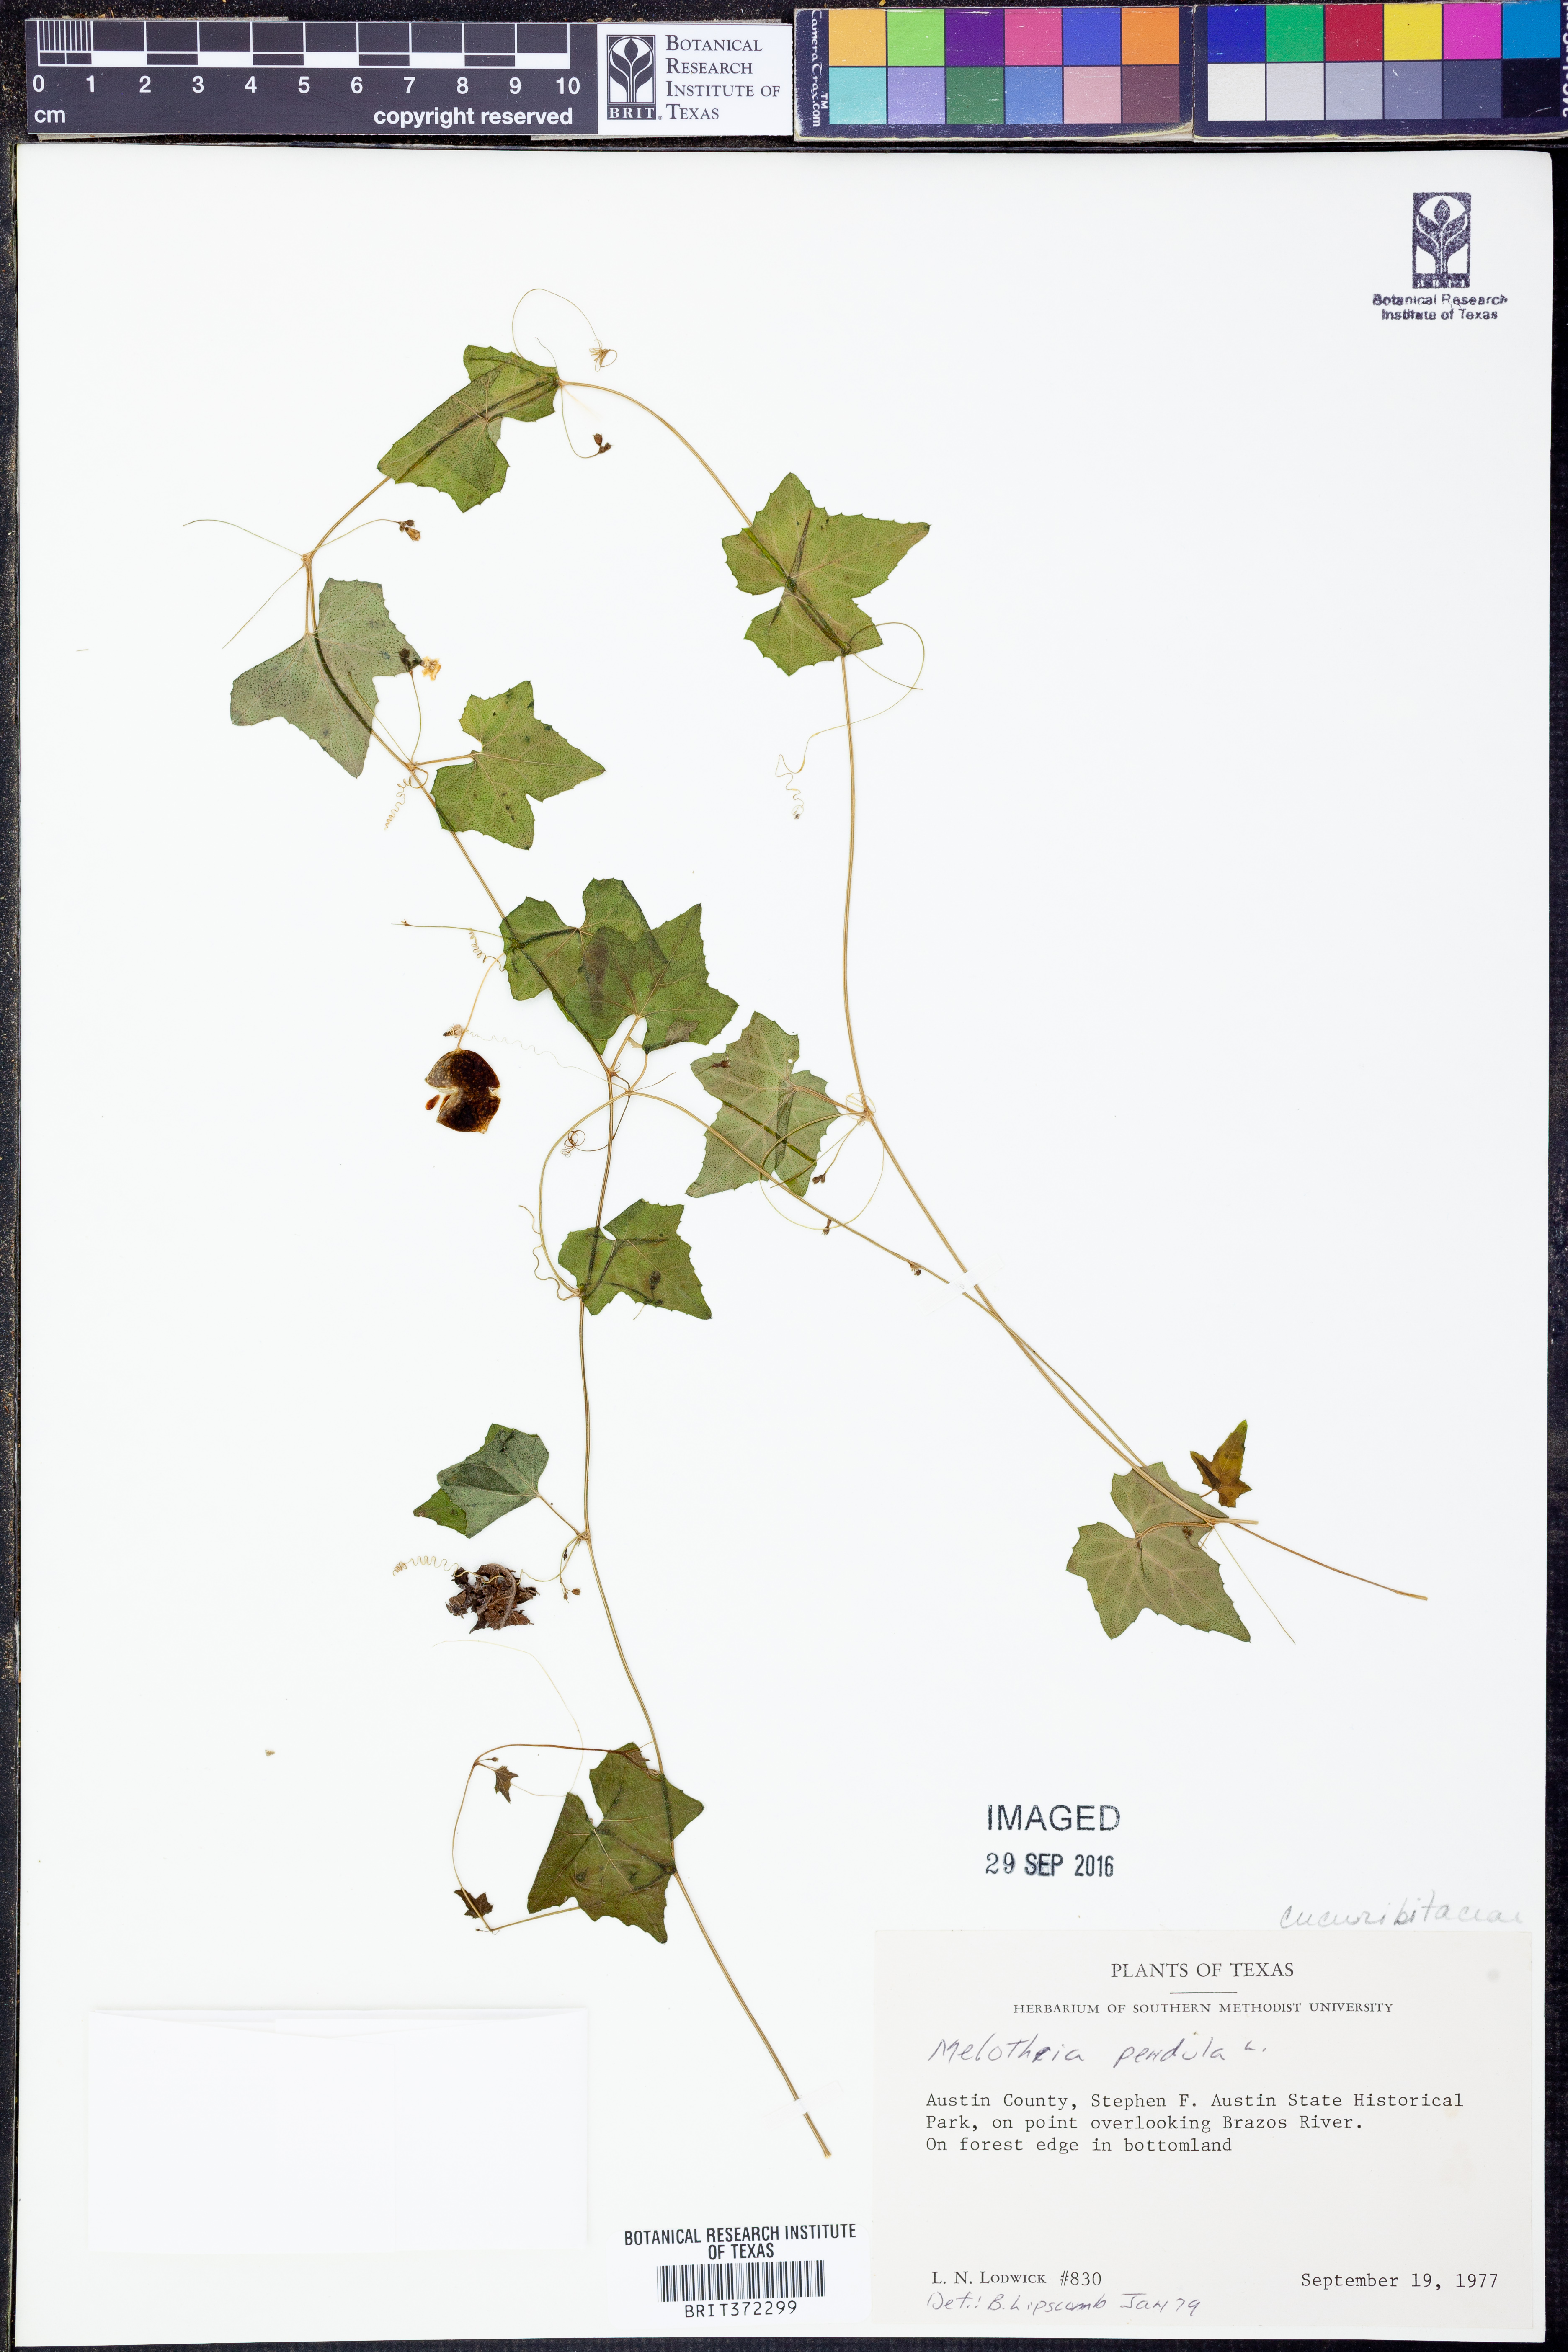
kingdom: Plantae
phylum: Tracheophyta
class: Magnoliopsida
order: Cucurbitales
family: Cucurbitaceae
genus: Melothria
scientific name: Melothria pendula
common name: Creeping-cucumber
